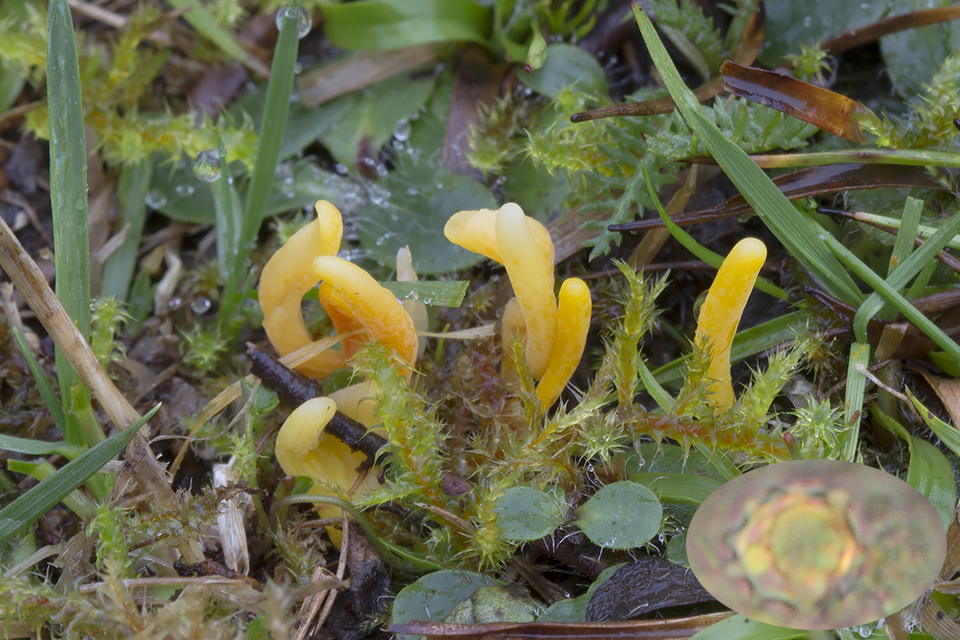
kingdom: Fungi
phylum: Basidiomycota
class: Agaricomycetes
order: Agaricales
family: Clavariaceae
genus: Clavulinopsis
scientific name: Clavulinopsis helvola
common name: orangegul køllesvamp
